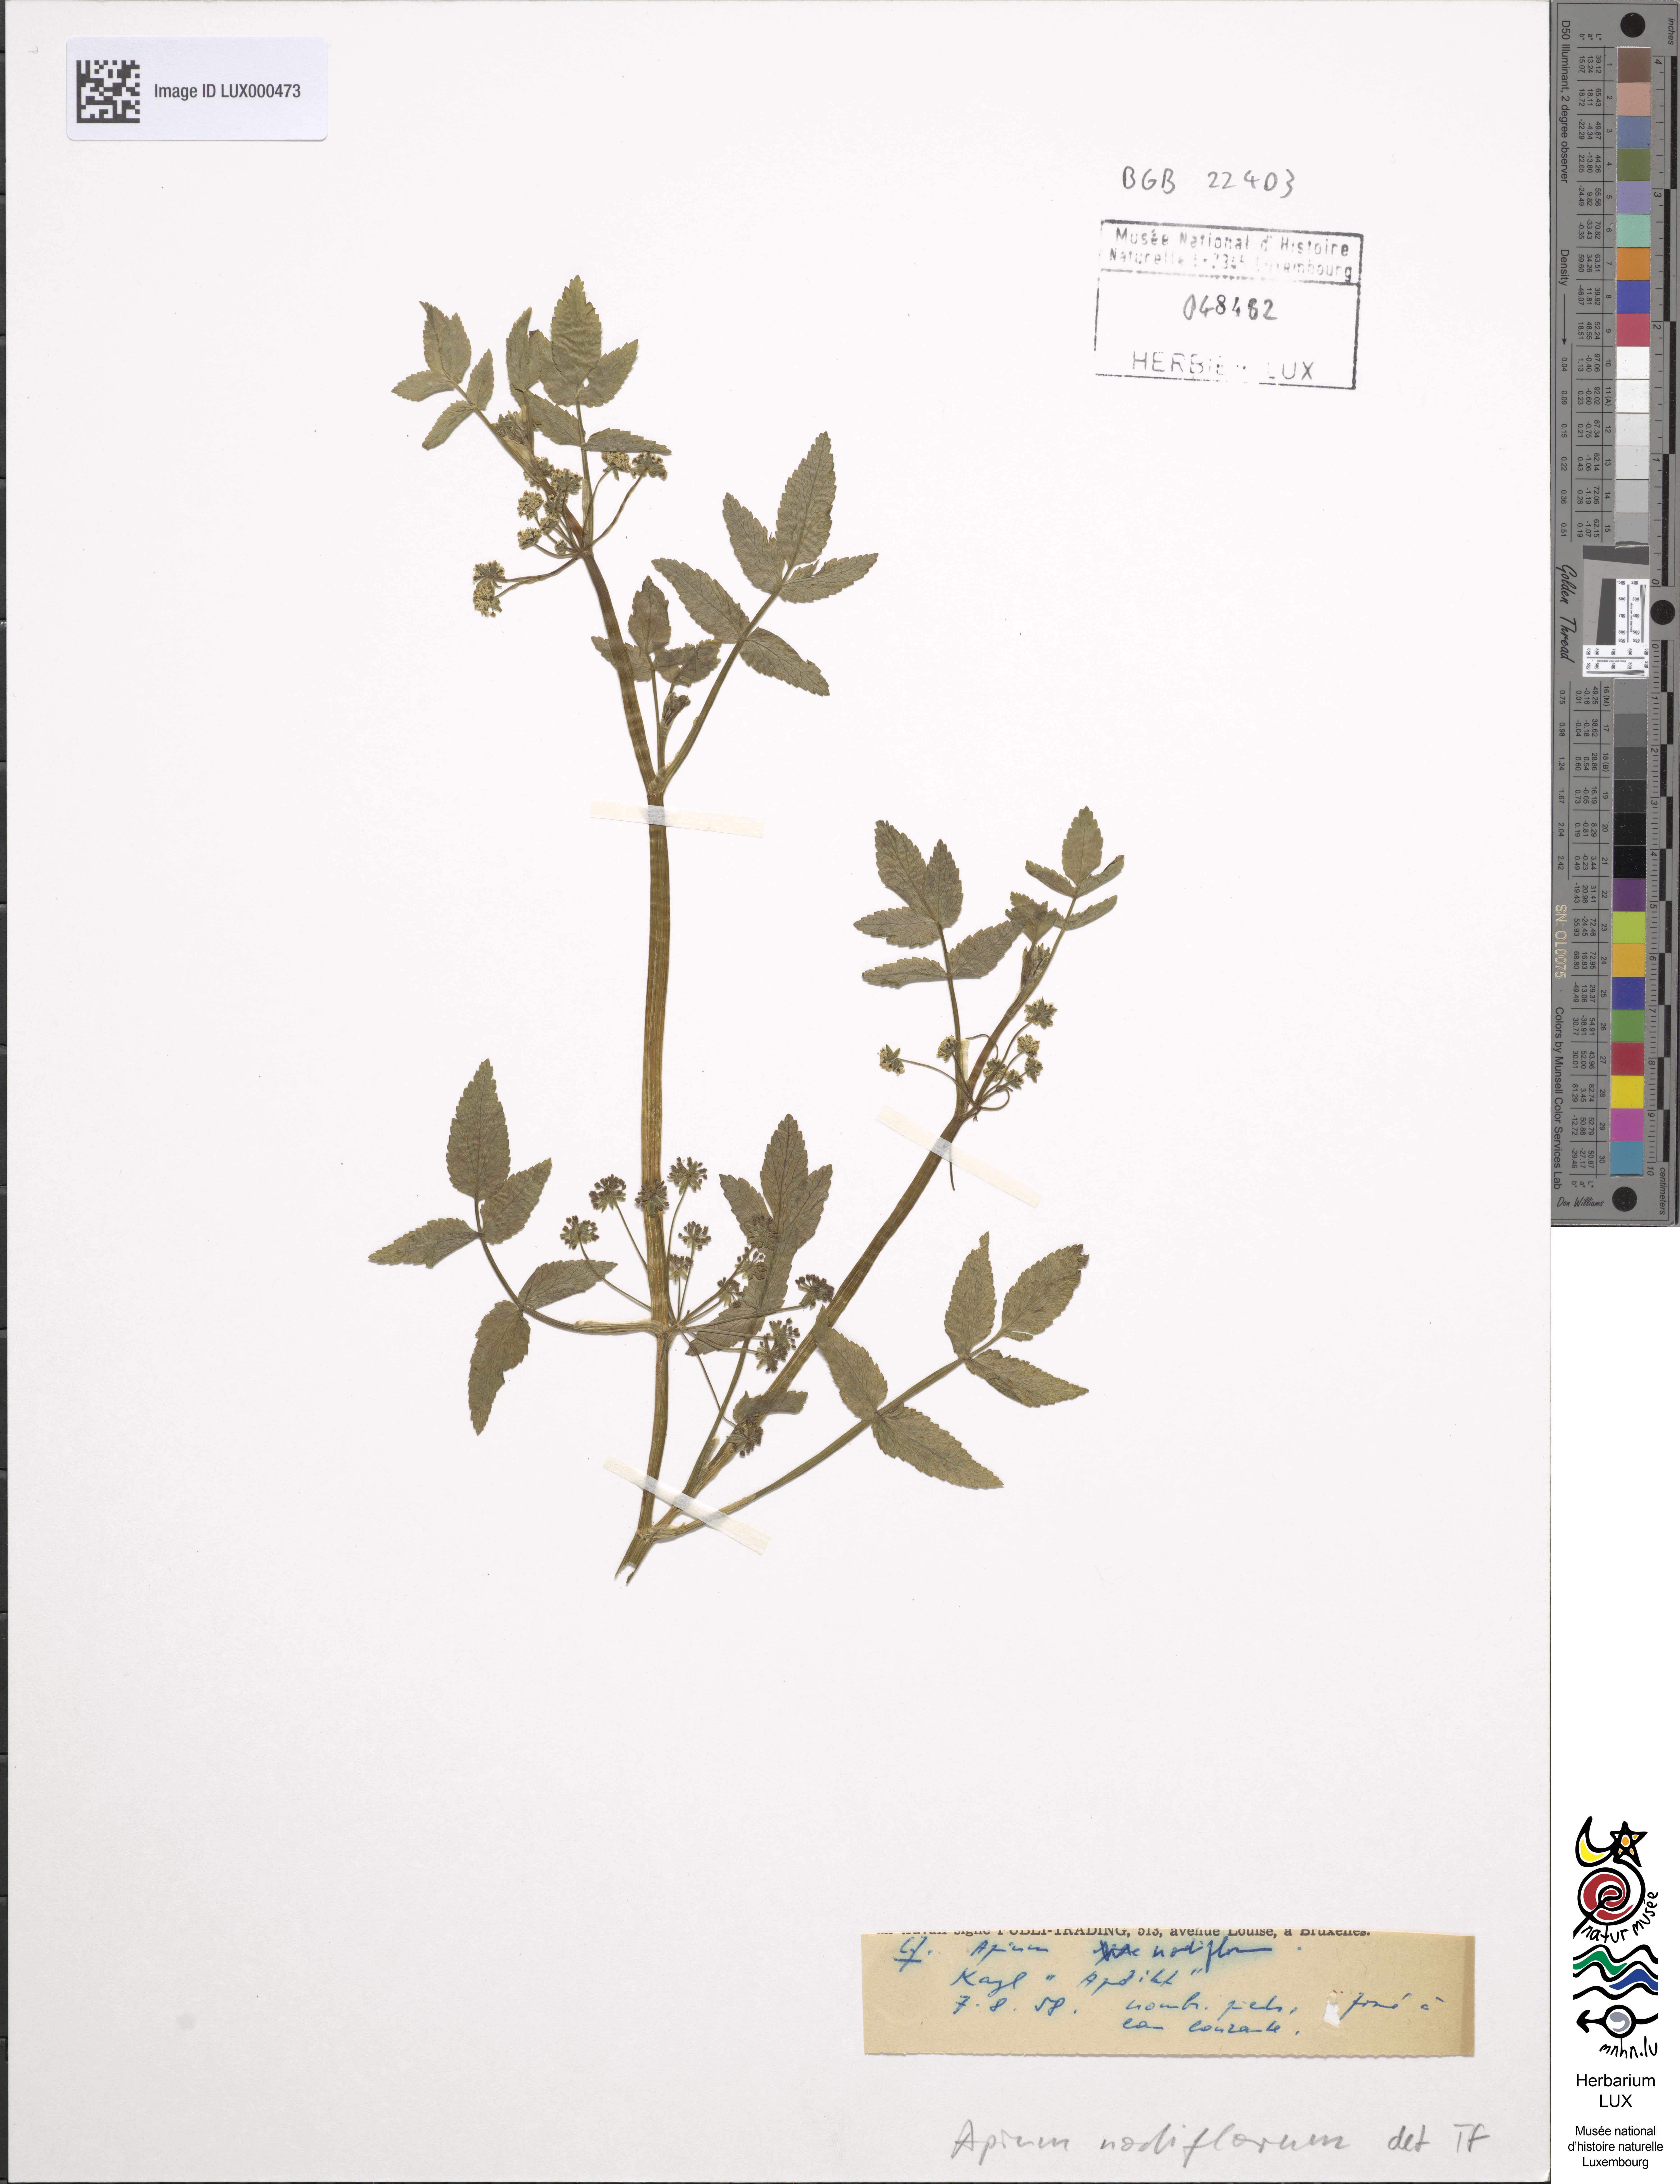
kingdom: Plantae
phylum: Tracheophyta
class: Magnoliopsida
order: Apiales
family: Apiaceae
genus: Helosciadium
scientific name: Helosciadium nodiflorum
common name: Fool's-watercress
